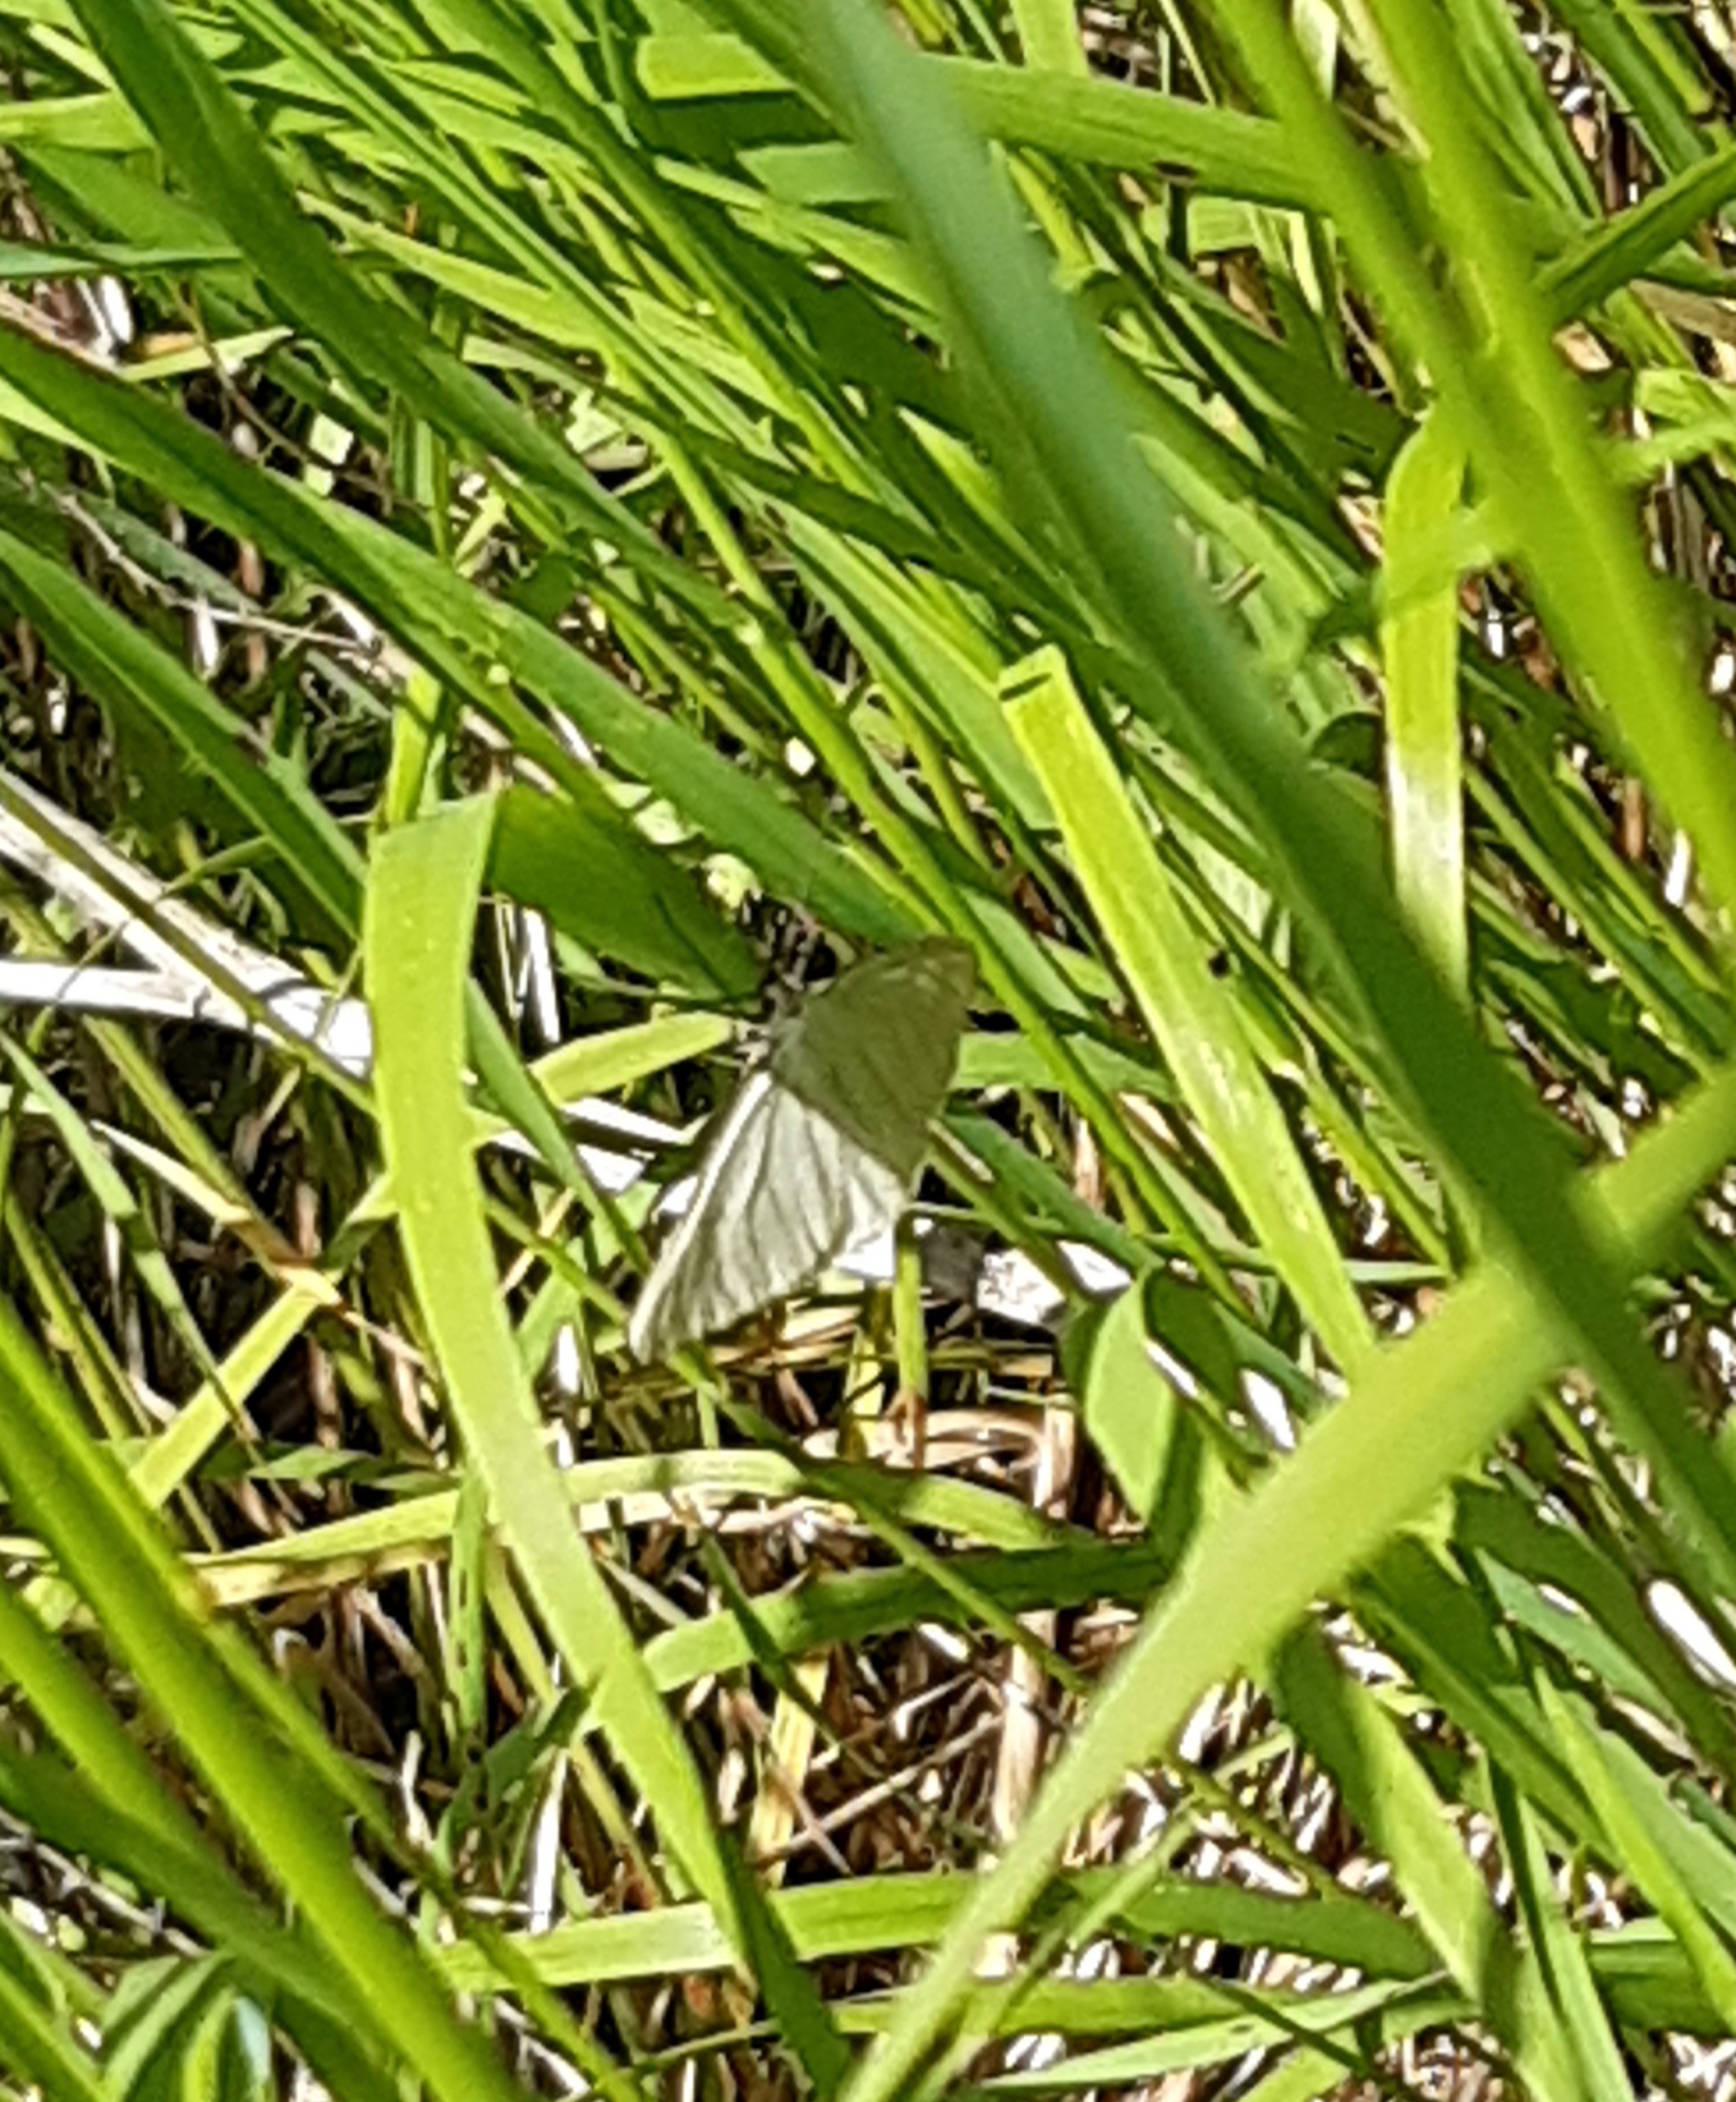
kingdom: Animalia
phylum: Arthropoda
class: Insecta
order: Lepidoptera
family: Geometridae
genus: Siona
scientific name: Siona lineata
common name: Hvidvingemåler
